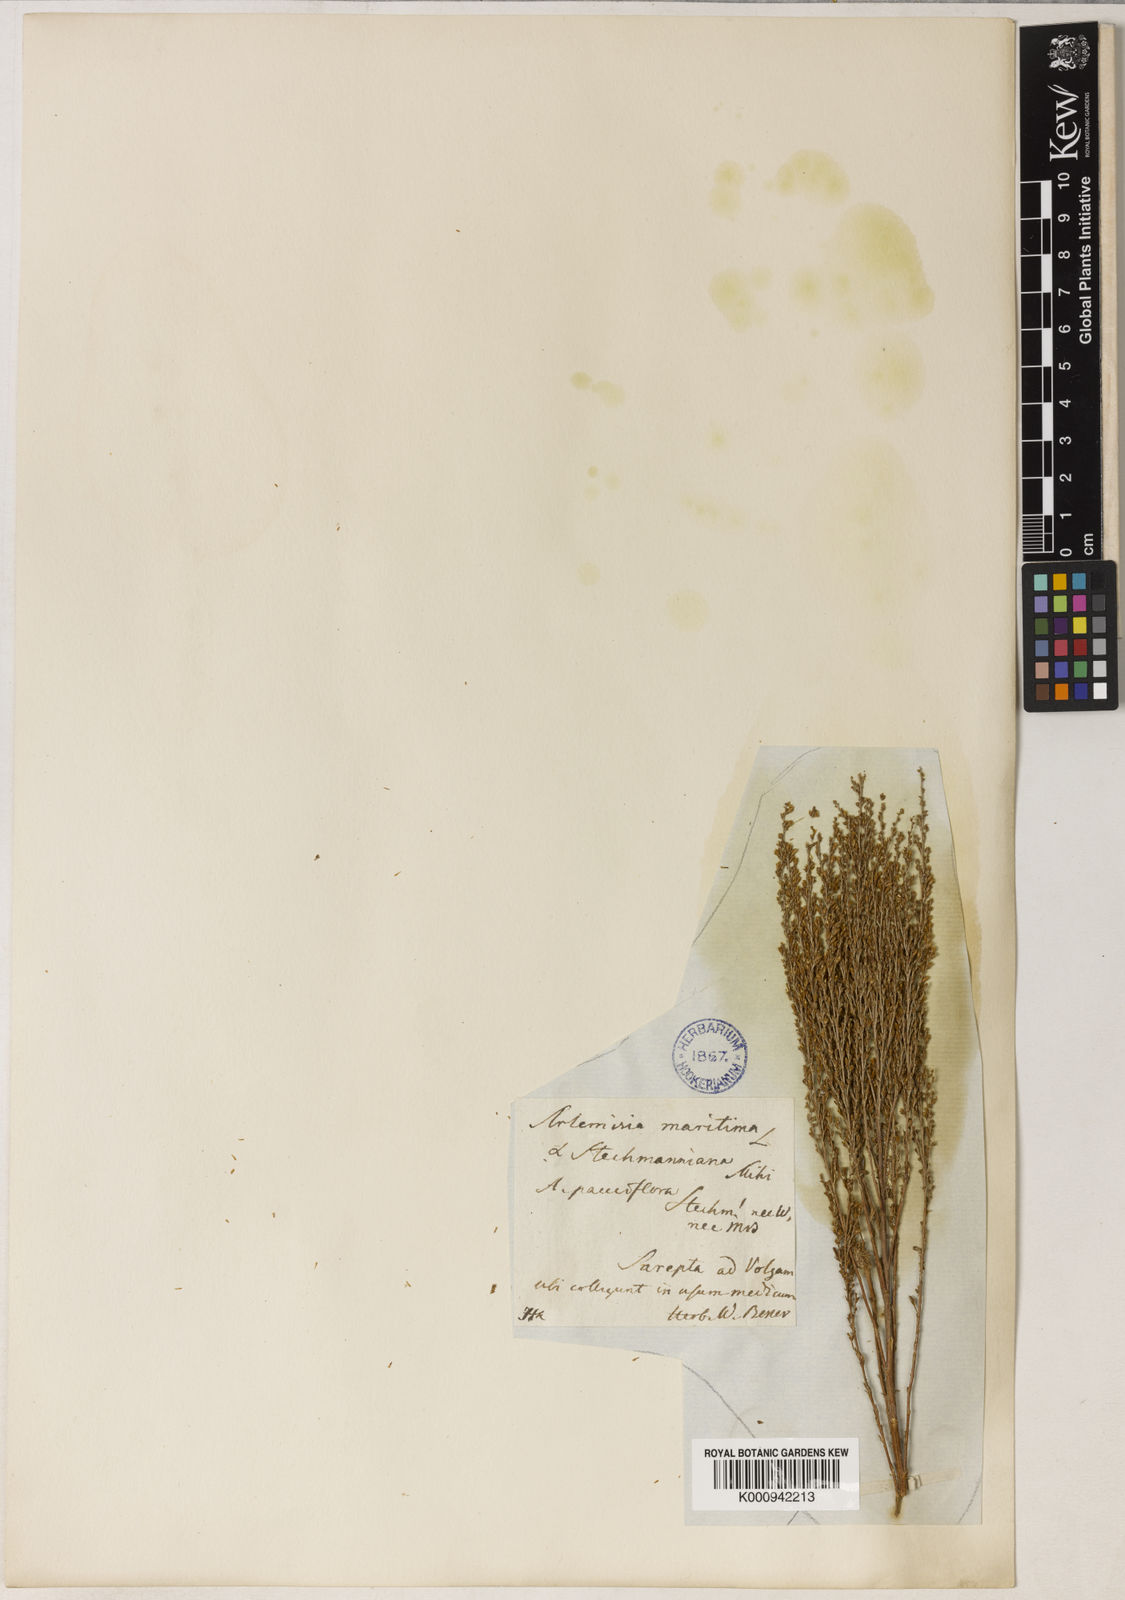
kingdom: Plantae
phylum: Tracheophyta
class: Magnoliopsida
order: Asterales
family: Asteraceae
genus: Artemisia
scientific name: Artemisia pauciflora
